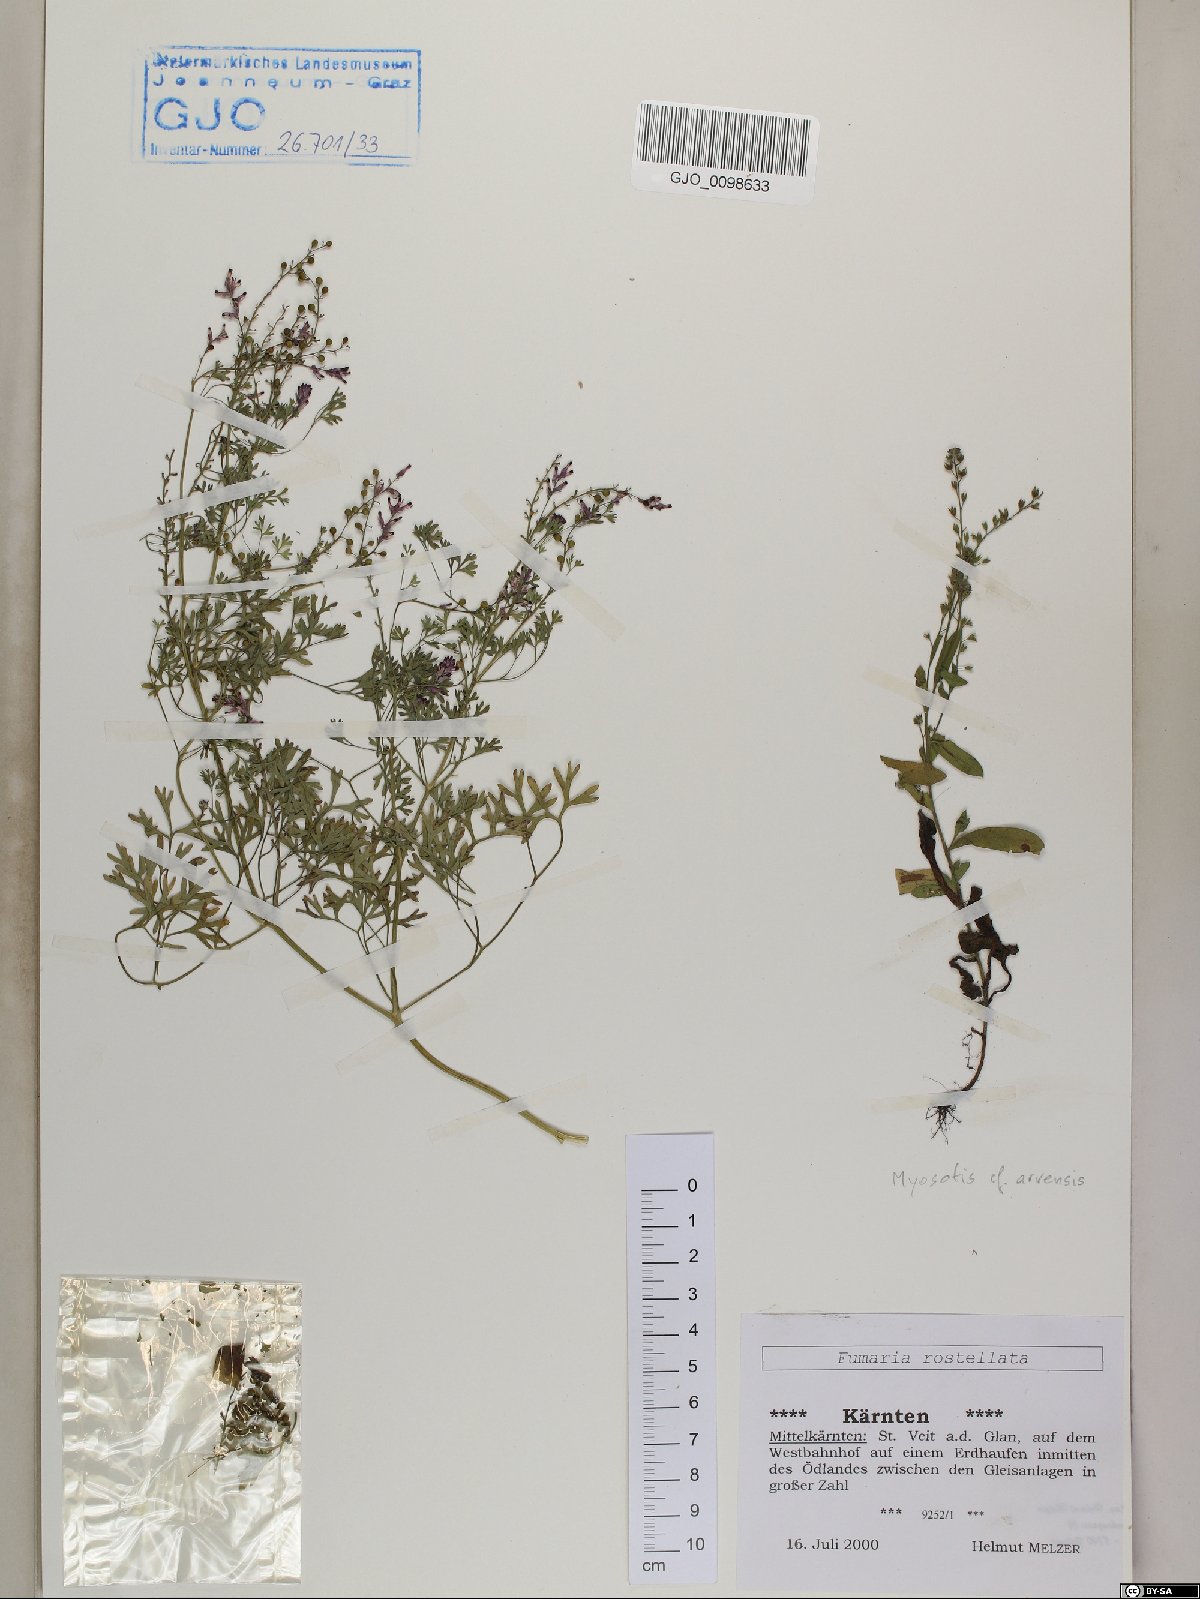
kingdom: Plantae
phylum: Tracheophyta
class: Magnoliopsida
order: Ranunculales
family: Papaveraceae
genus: Fumaria
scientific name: Fumaria rostellata
